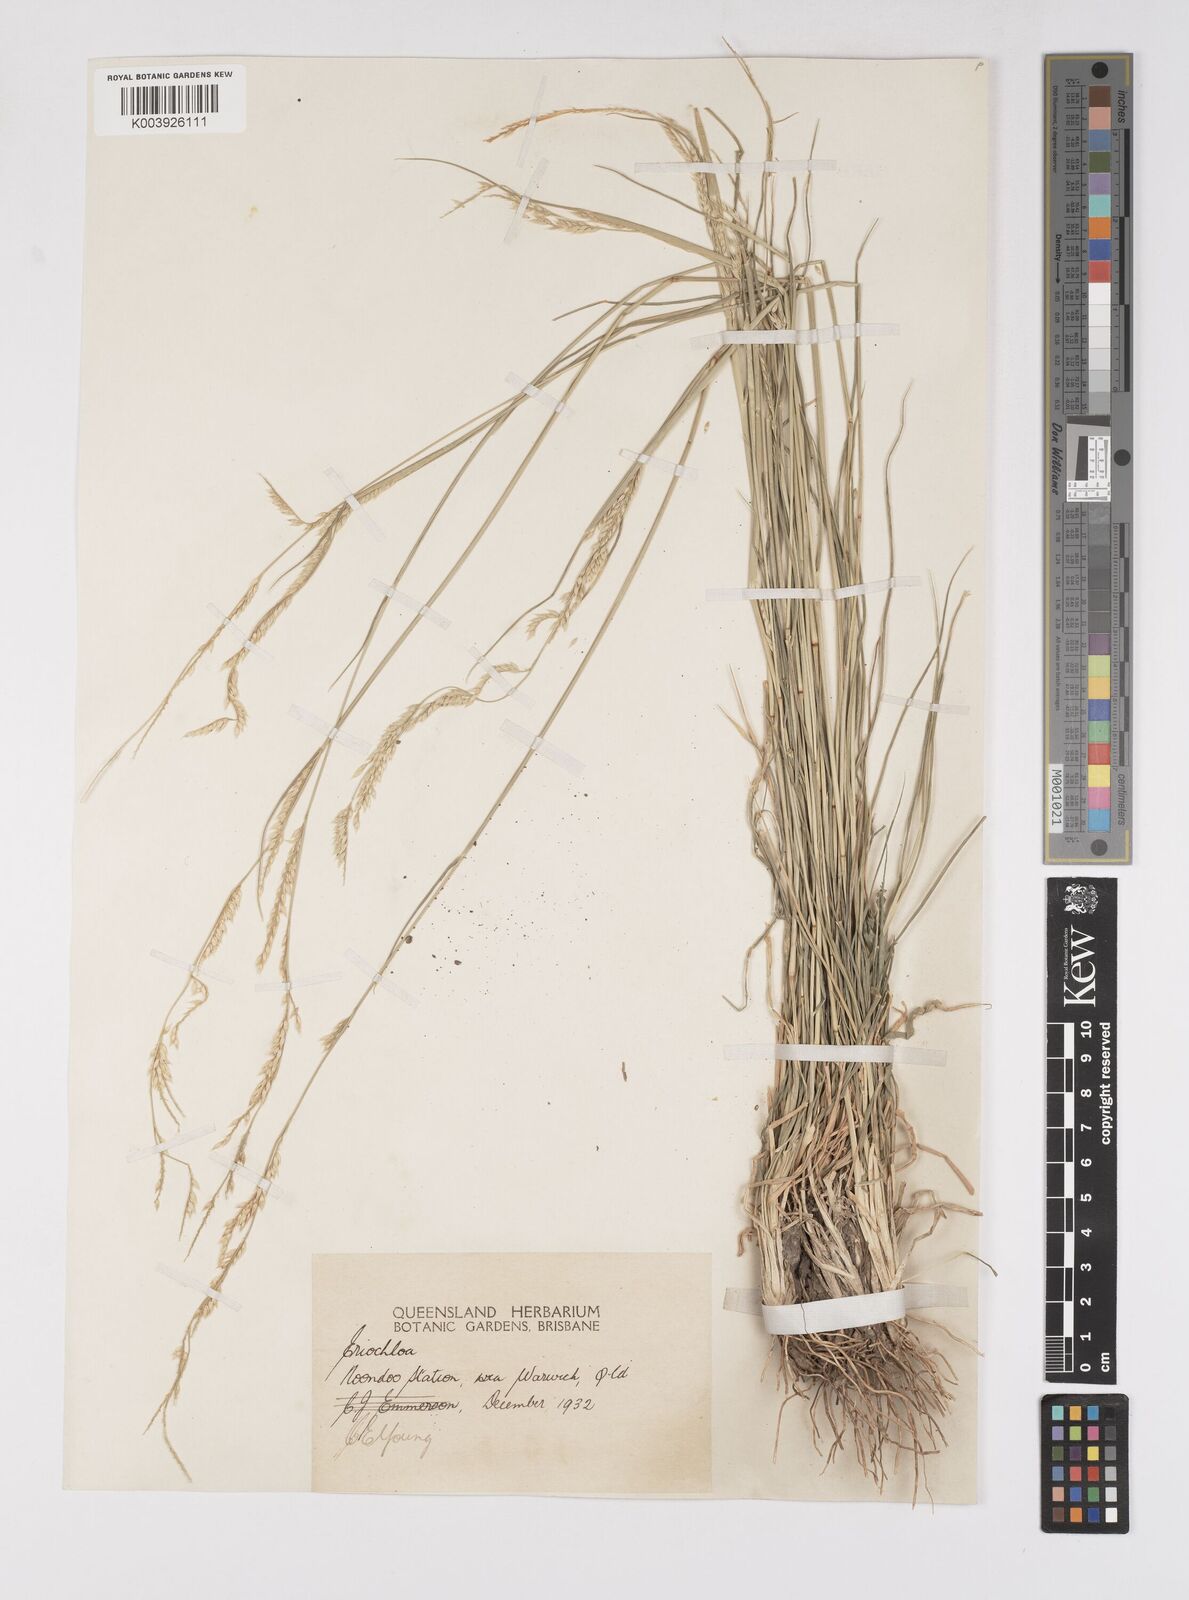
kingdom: Plantae
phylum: Tracheophyta
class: Liliopsida
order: Poales
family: Poaceae
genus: Eriochloa
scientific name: Eriochloa
